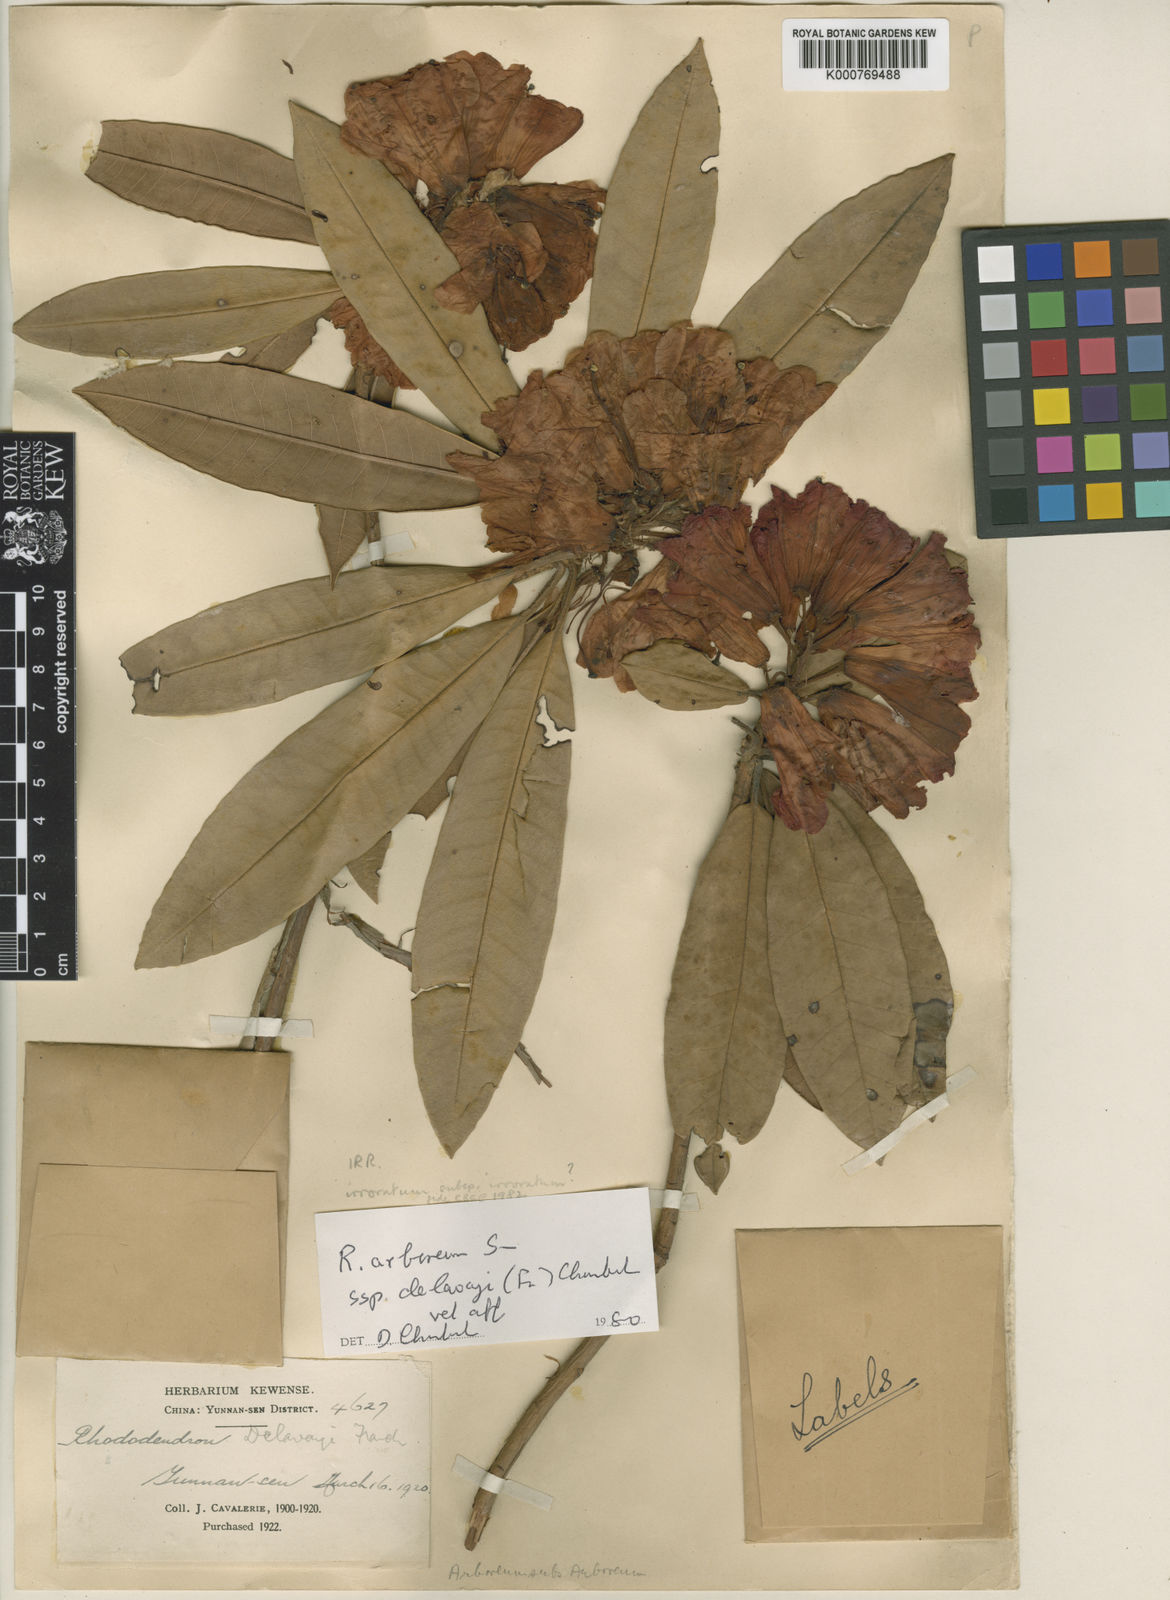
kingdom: Plantae
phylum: Tracheophyta
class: Magnoliopsida
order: Ericales
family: Ericaceae
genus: Rhododendron
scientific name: Rhododendron delavayi
